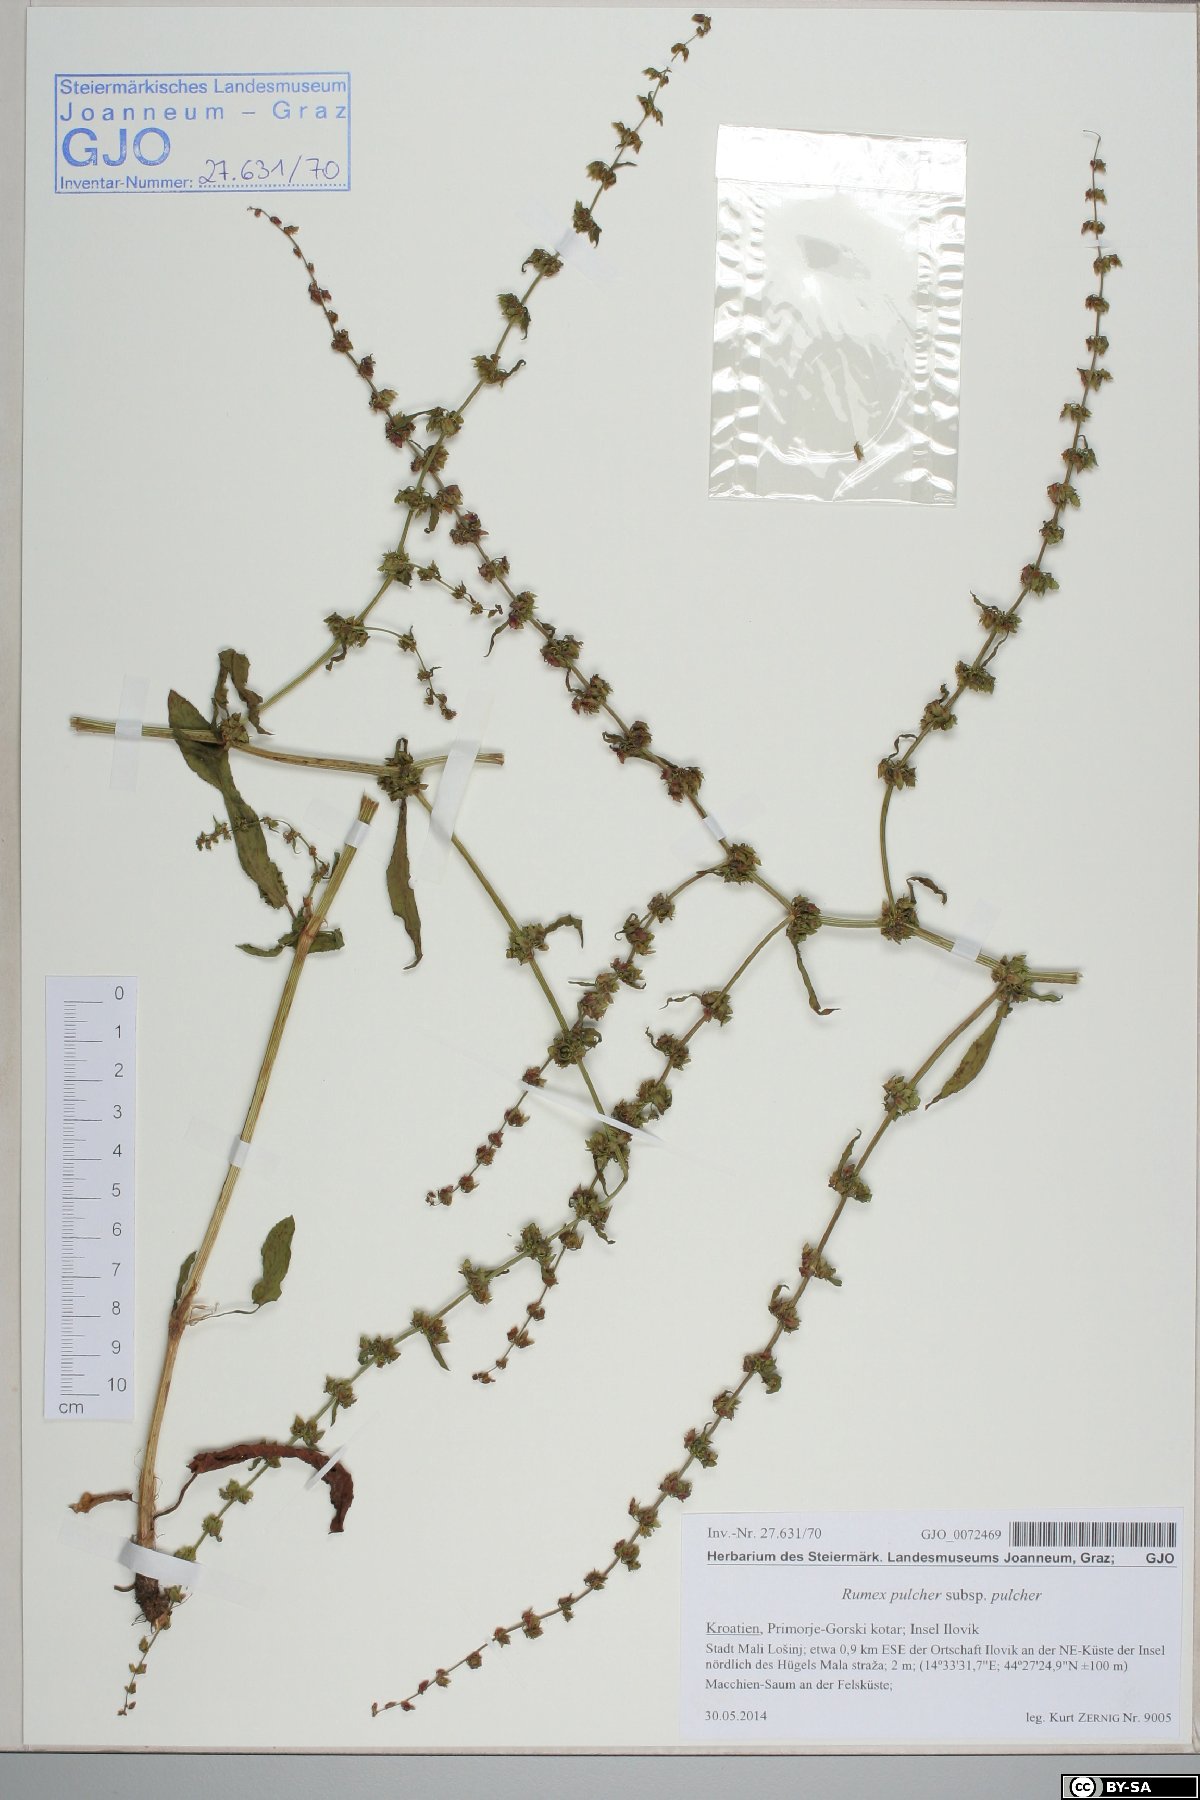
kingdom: Plantae
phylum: Tracheophyta
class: Magnoliopsida
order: Caryophyllales
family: Polygonaceae
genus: Rumex
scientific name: Rumex pulcher
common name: Fiddle dock
